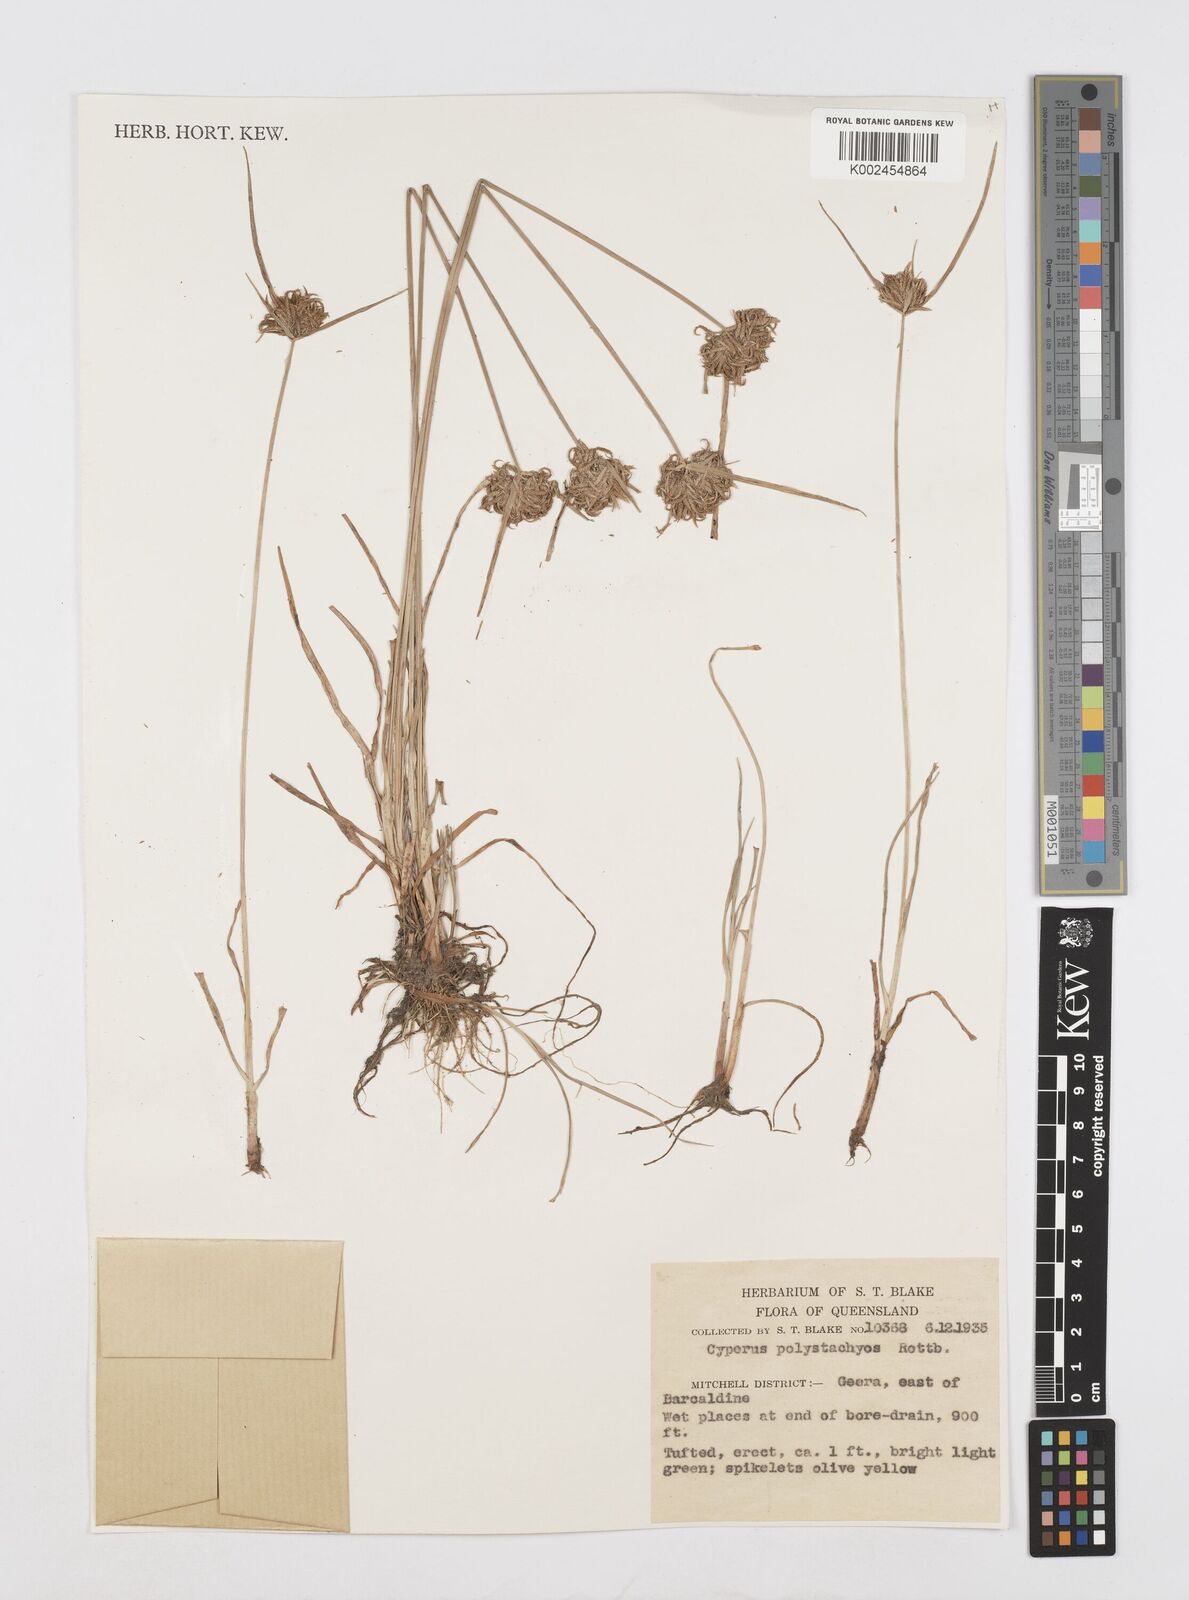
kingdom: Plantae
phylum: Tracheophyta
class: Liliopsida
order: Poales
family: Cyperaceae
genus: Cyperus
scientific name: Cyperus polystachyos
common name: Bunchy flat sedge
